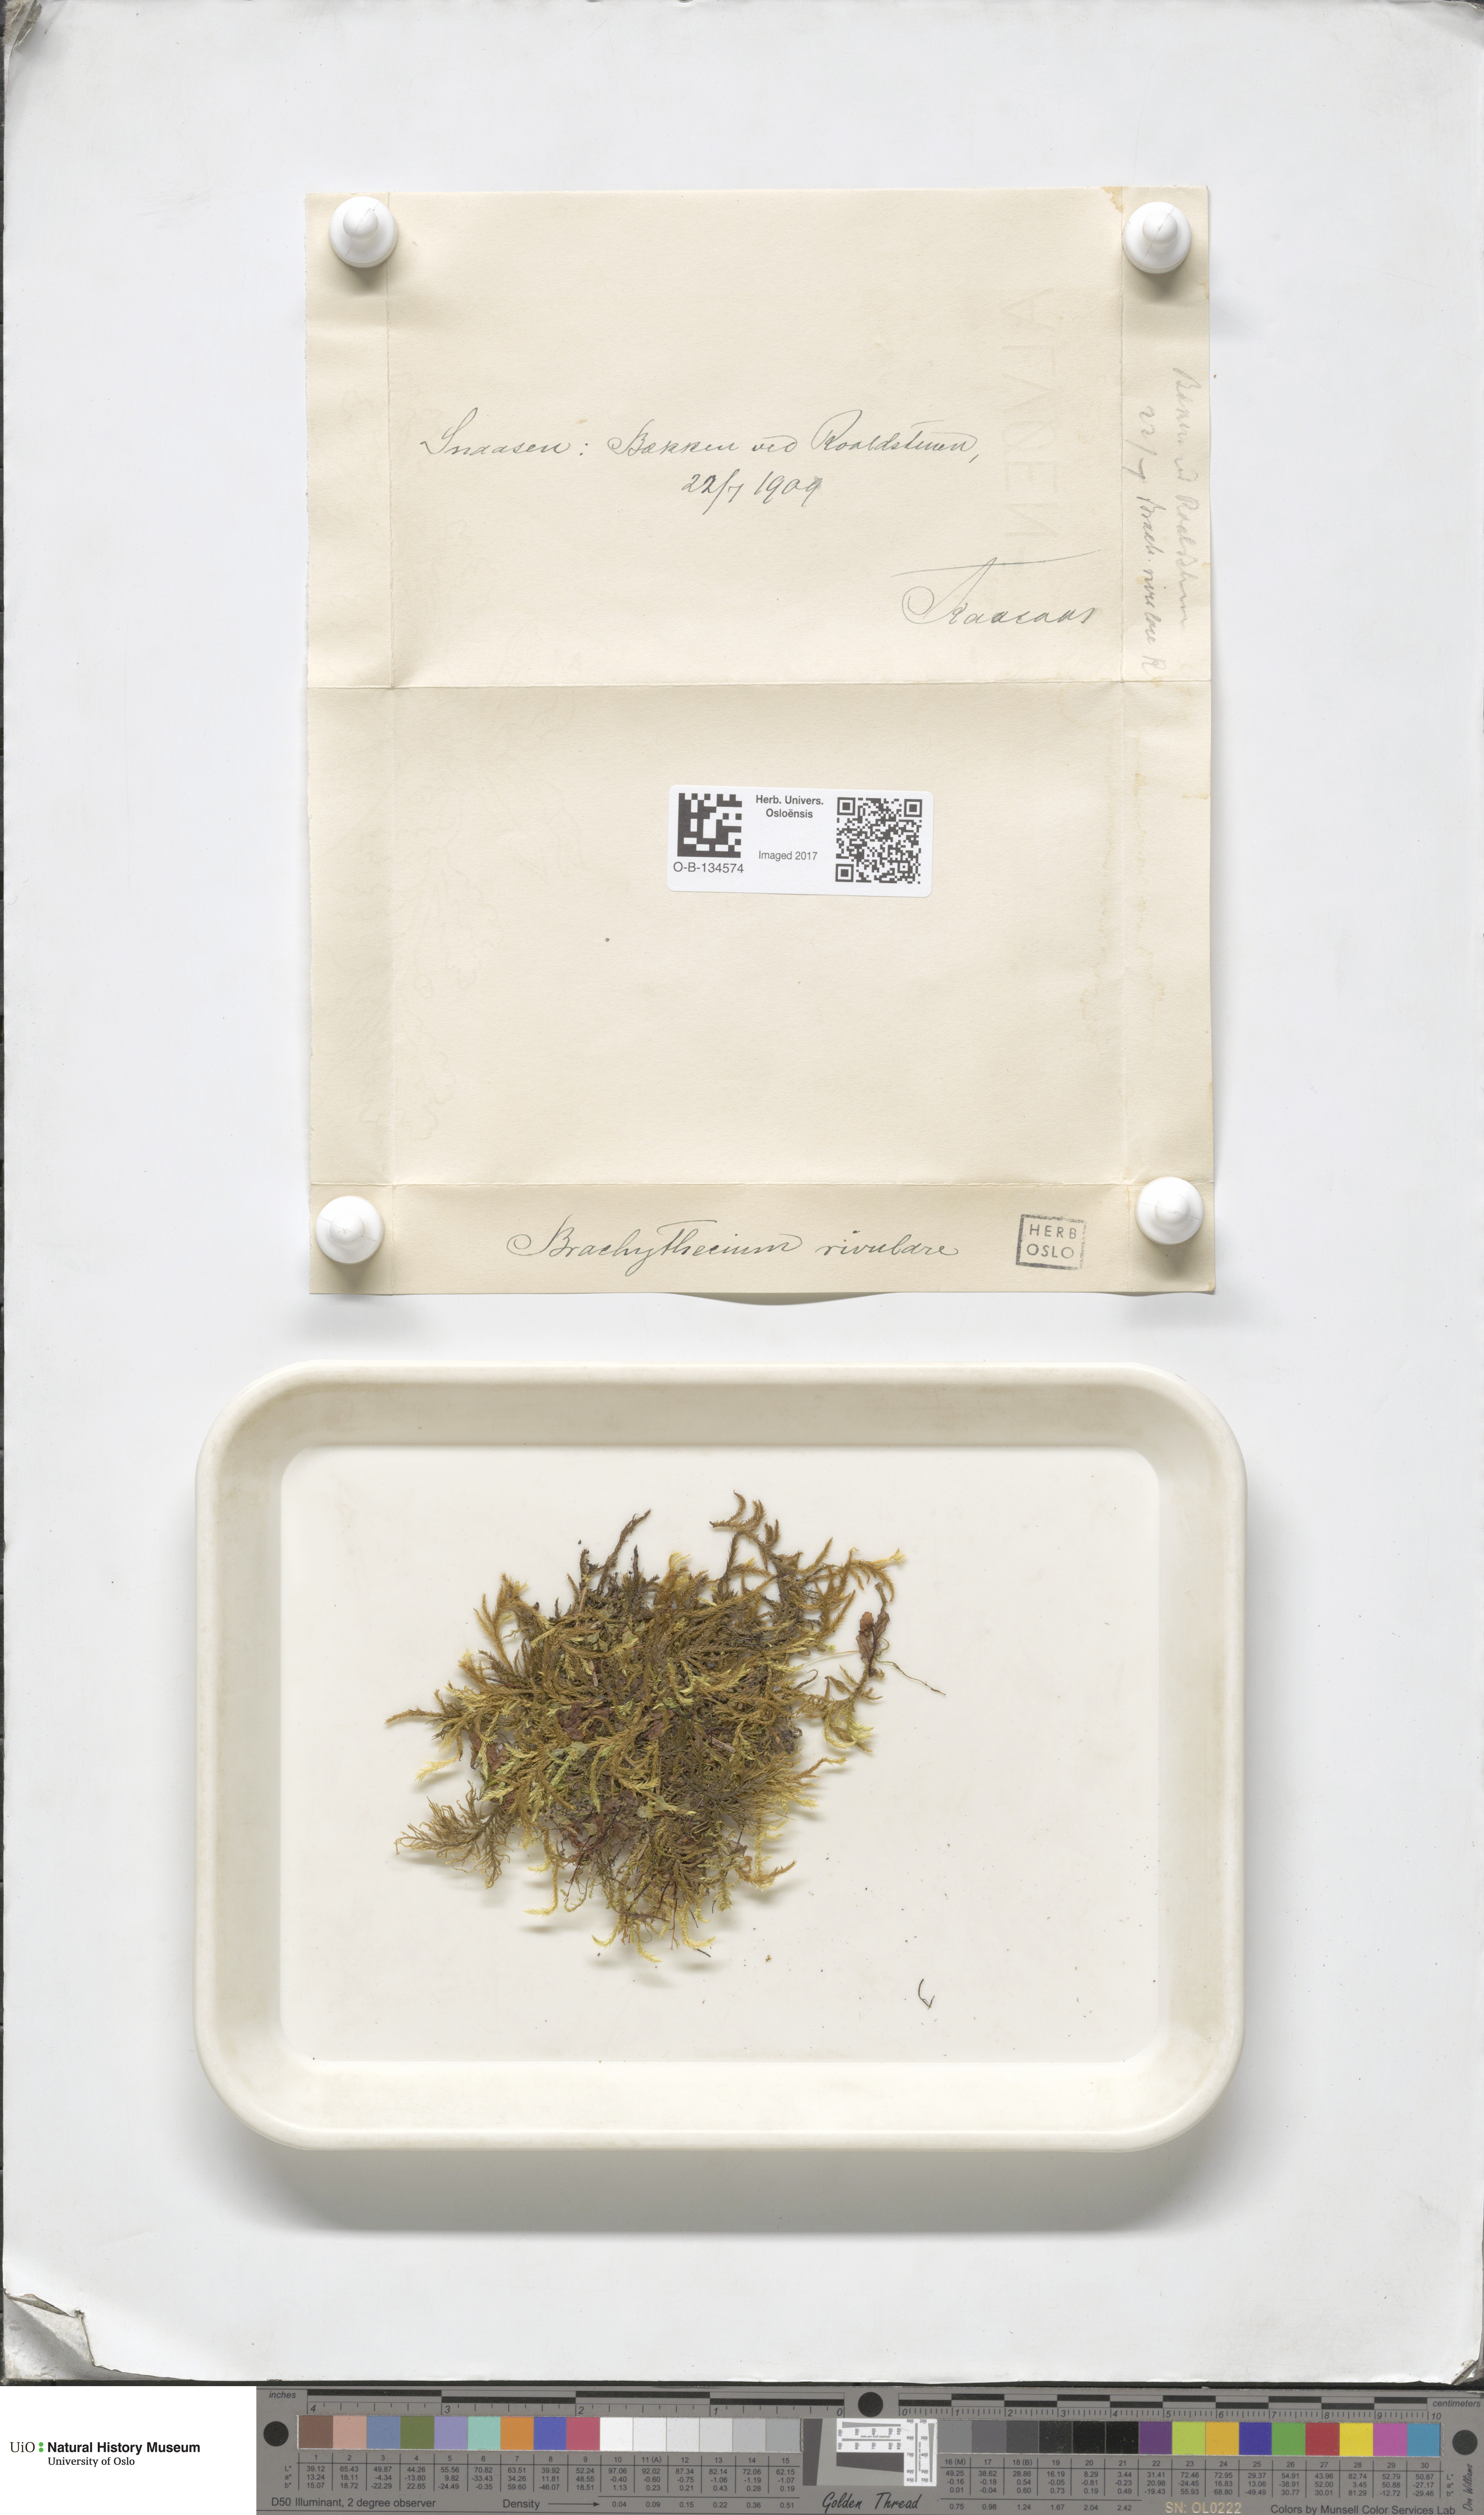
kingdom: Plantae
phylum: Bryophyta
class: Bryopsida
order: Hypnales
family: Brachytheciaceae
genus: Brachythecium
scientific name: Brachythecium rivulare
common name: River ragged moss
